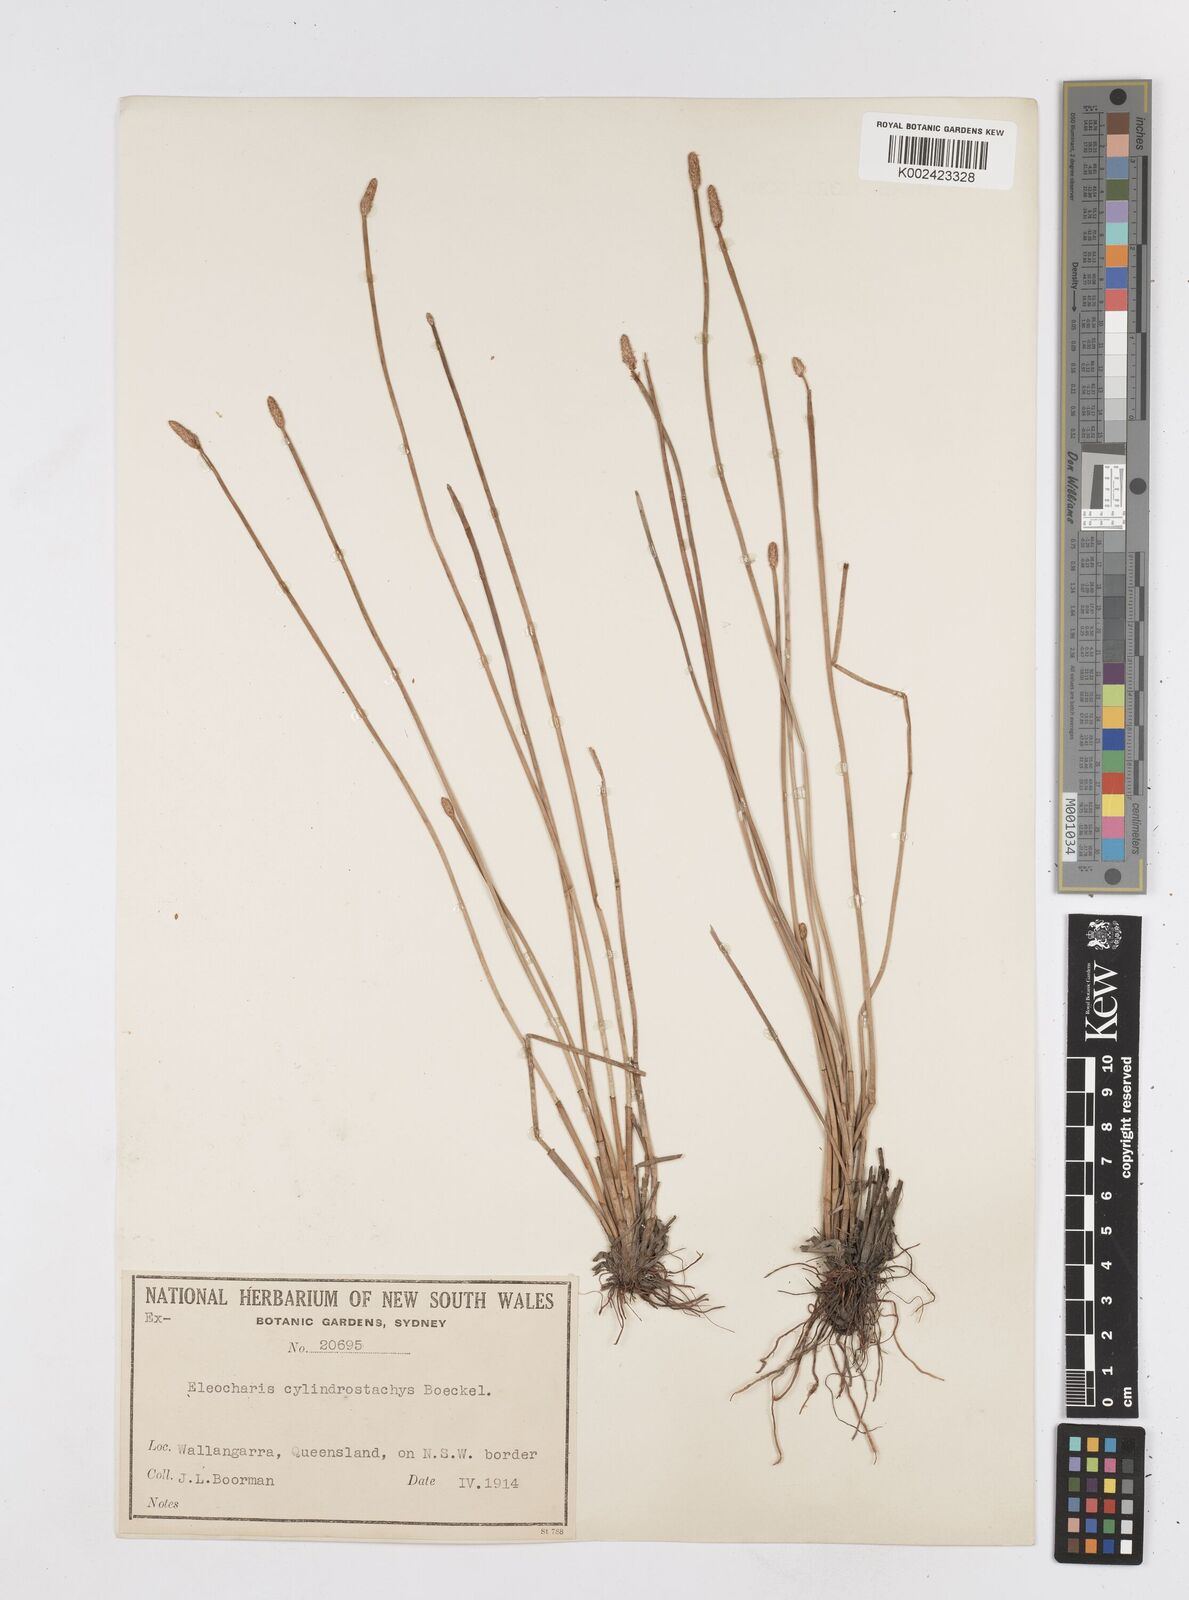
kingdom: Plantae
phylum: Tracheophyta
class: Liliopsida
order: Poales
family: Cyperaceae
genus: Eleocharis
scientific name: Eleocharis cylindrostachys
